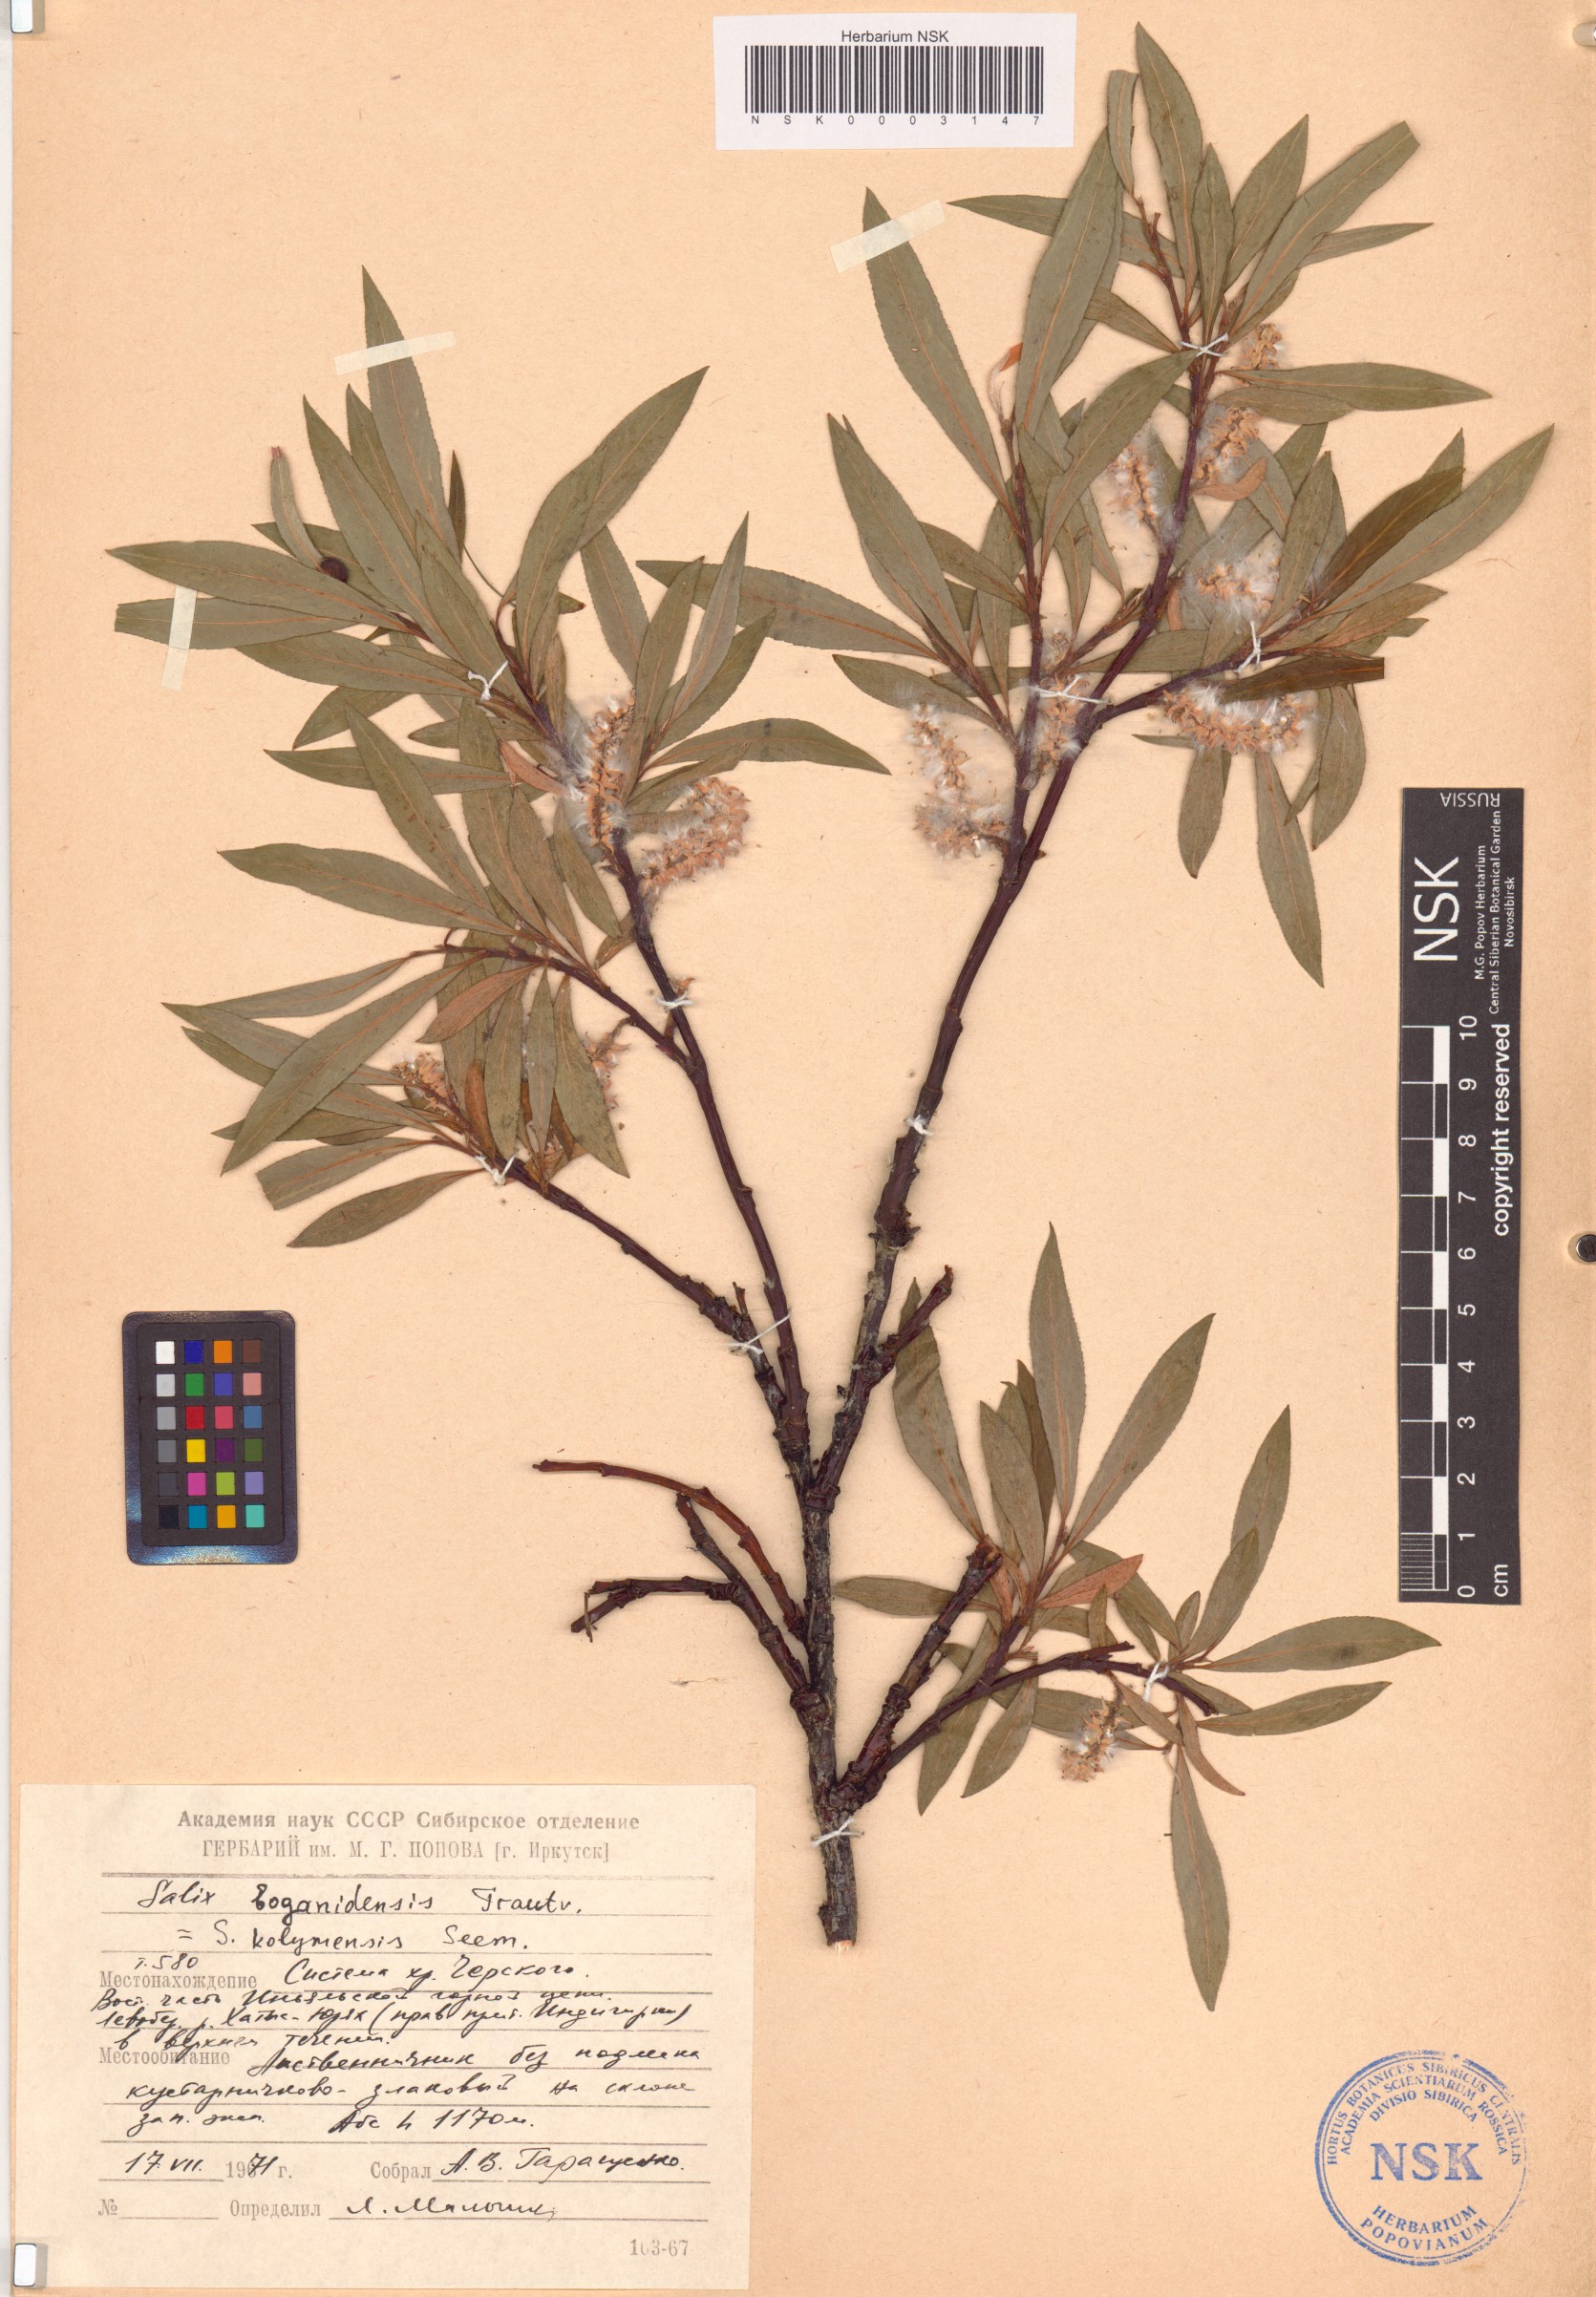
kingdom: Plantae
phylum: Tracheophyta
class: Magnoliopsida
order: Malpighiales
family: Salicaceae
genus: Salix
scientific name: Salix boganidensis
